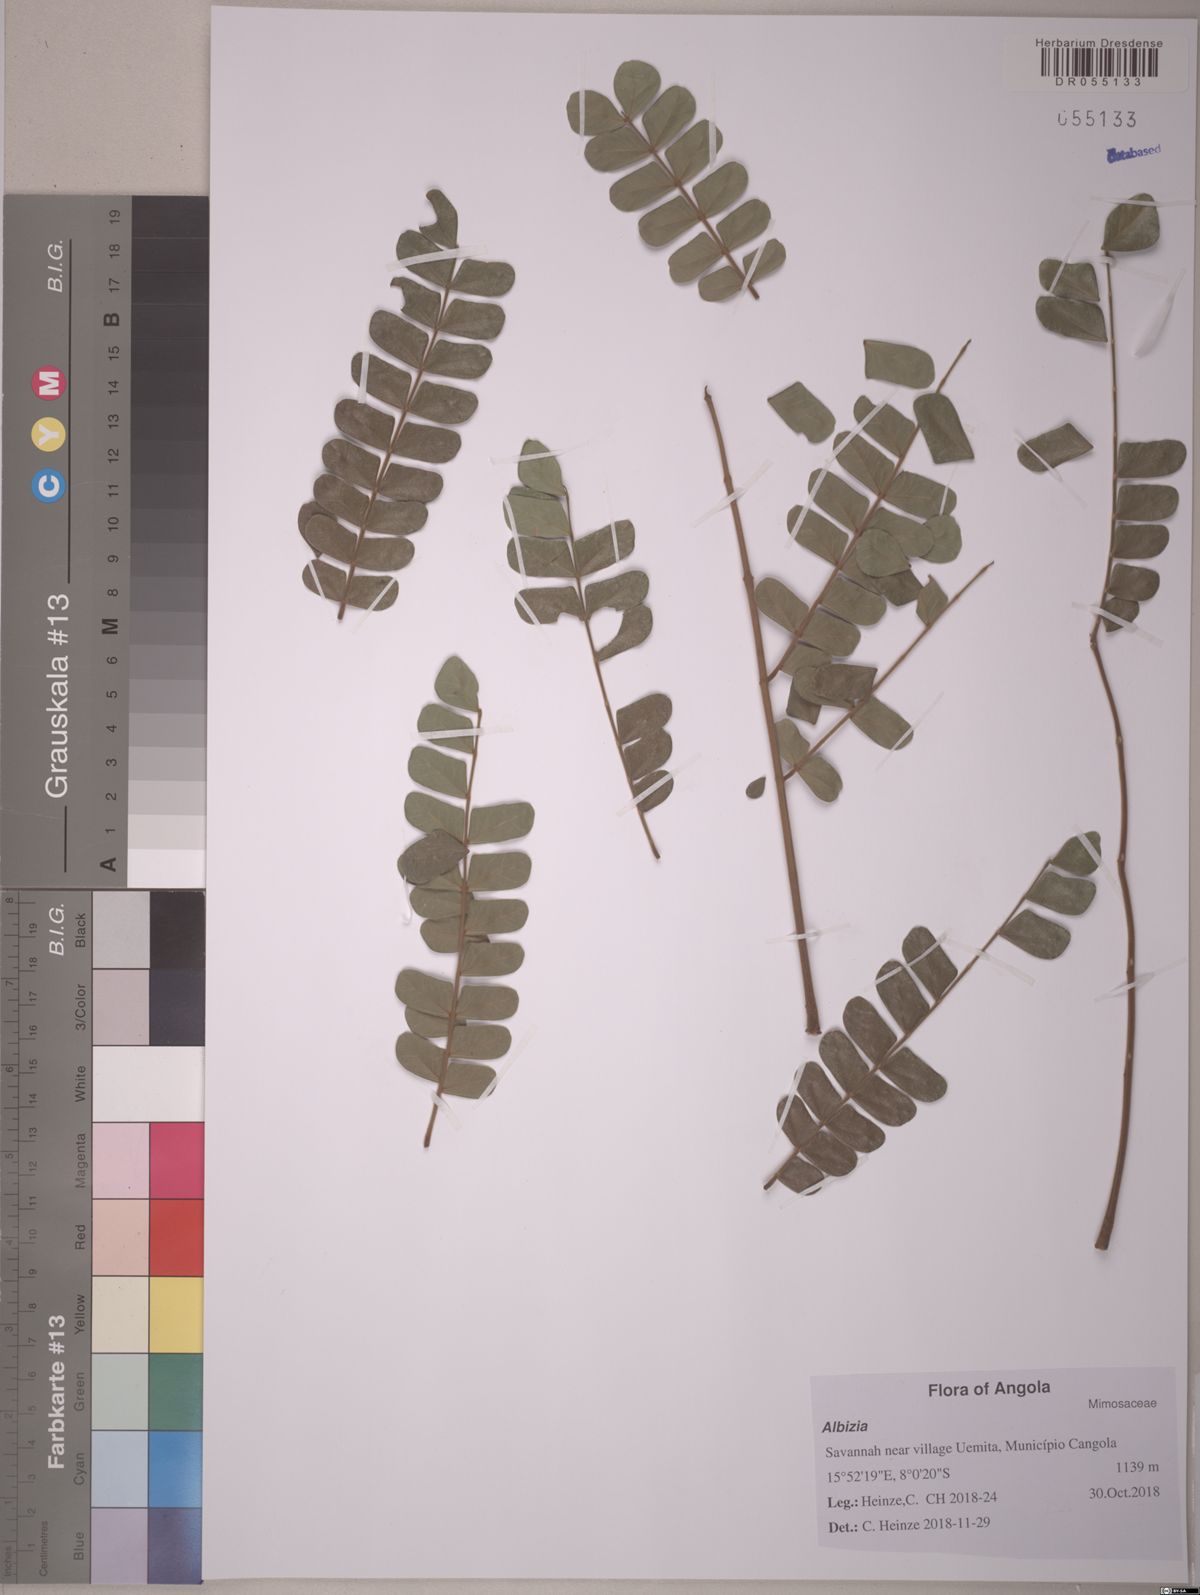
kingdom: Plantae
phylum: Tracheophyta
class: Magnoliopsida
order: Fabales
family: Fabaceae
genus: Albizia
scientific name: Albizia adianthifolia
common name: West african albizia
